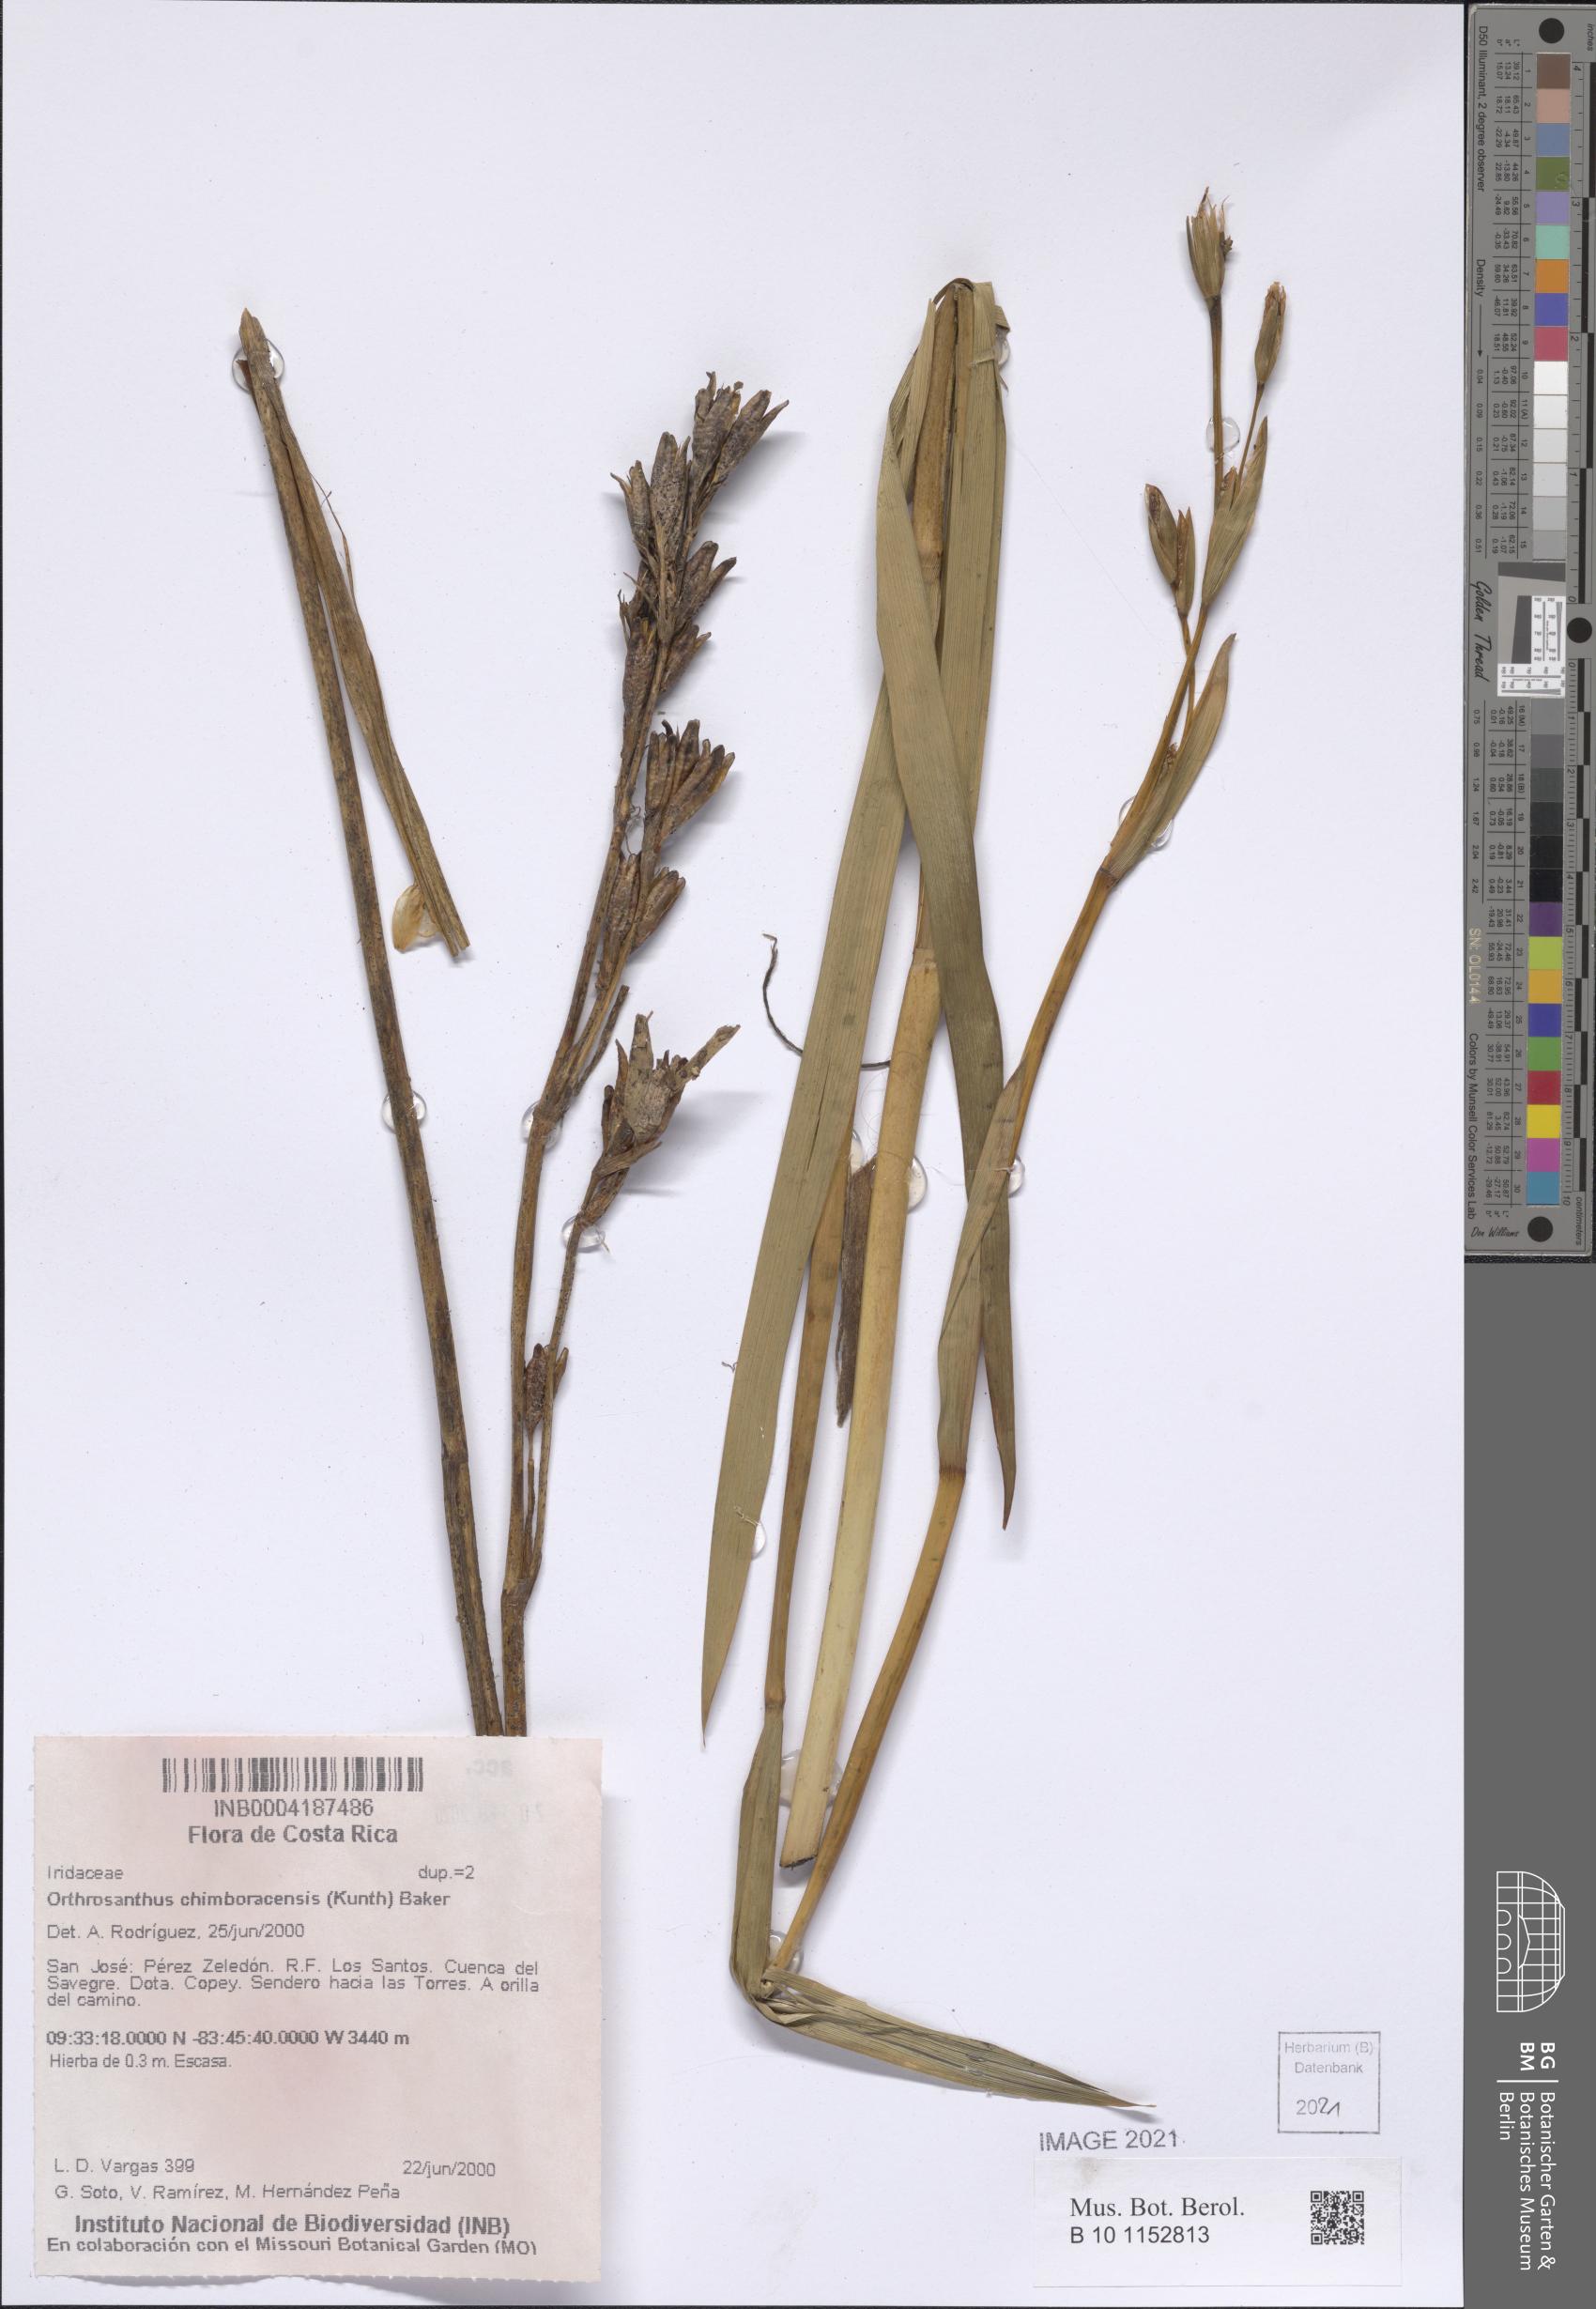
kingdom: Plantae
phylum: Tracheophyta
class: Liliopsida
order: Asparagales
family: Iridaceae
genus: Orthrosanthus
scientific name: Orthrosanthus chimboracensis
